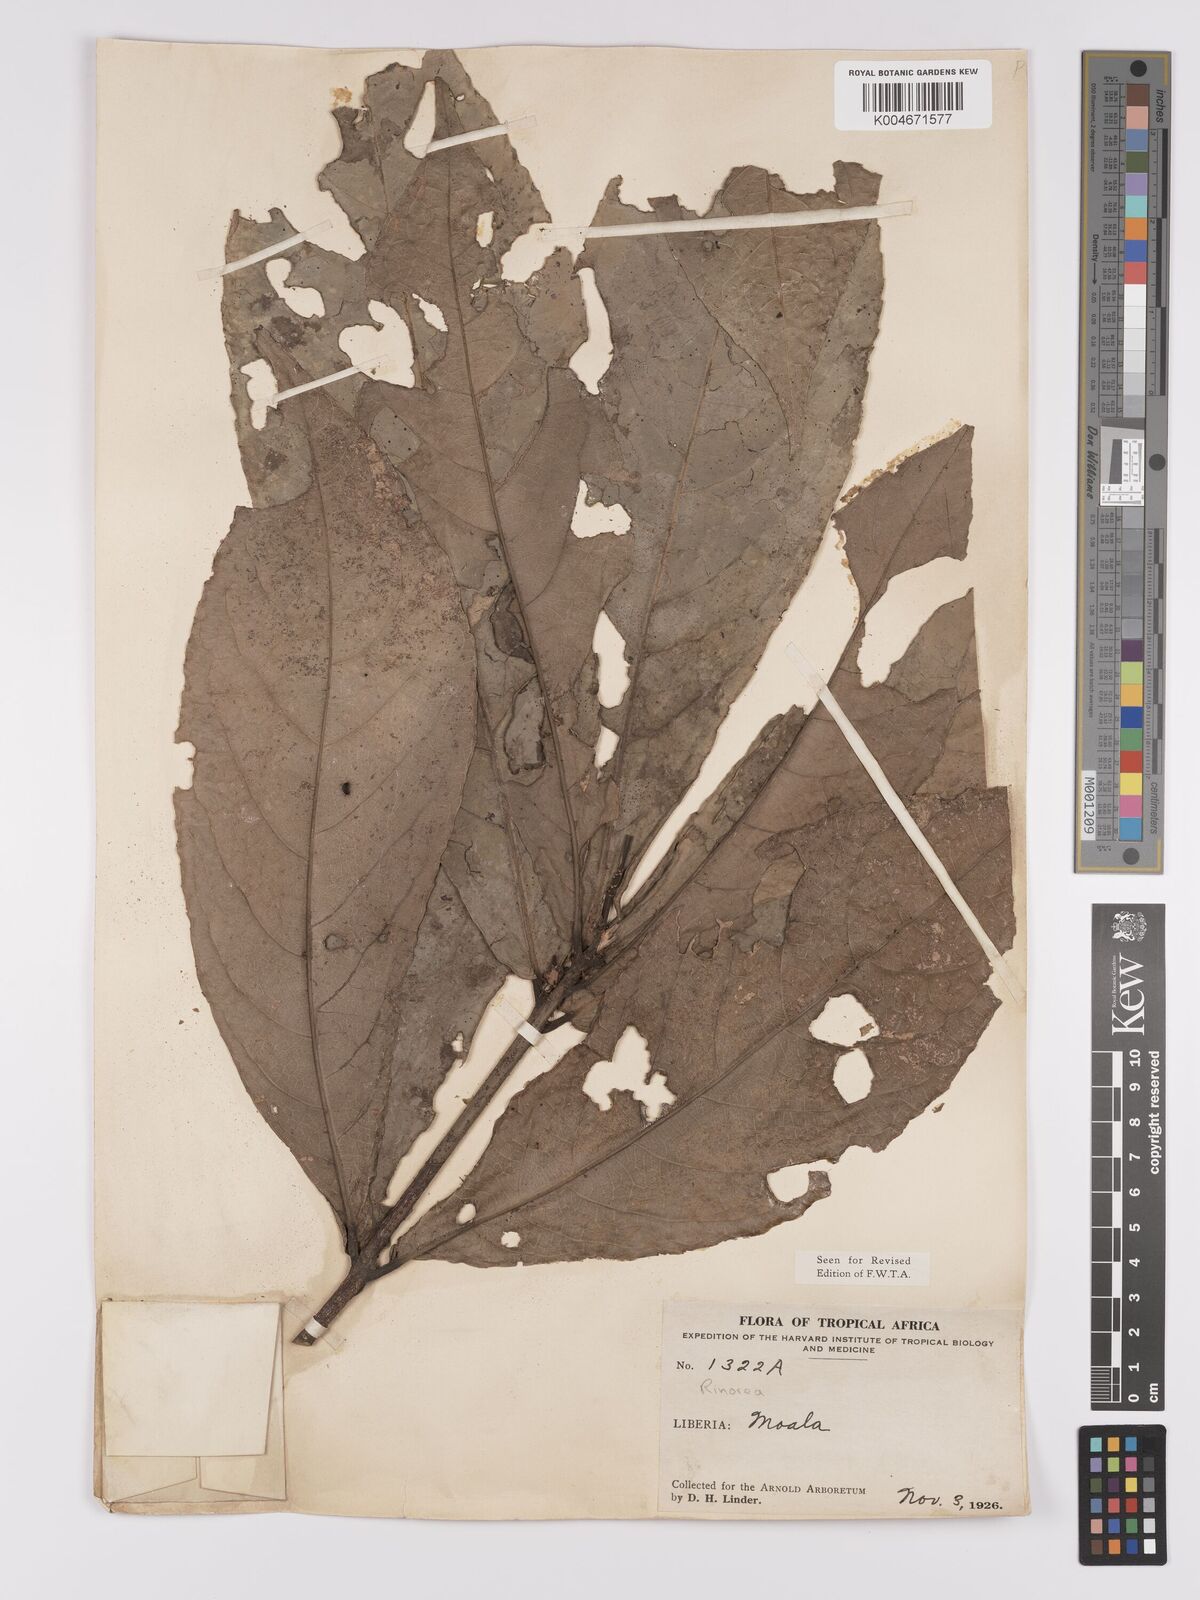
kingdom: Plantae
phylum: Tracheophyta
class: Magnoliopsida
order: Malpighiales
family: Violaceae
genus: Rinorea
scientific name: Rinorea oblanceolata
